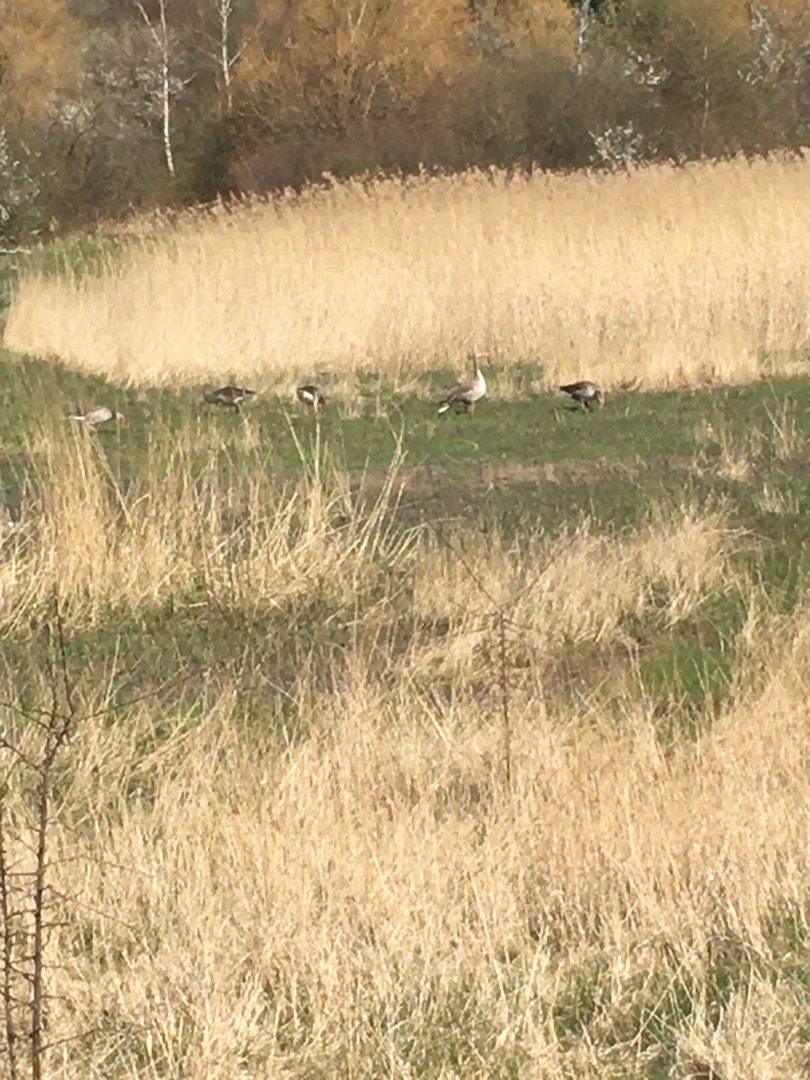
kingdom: Animalia
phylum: Chordata
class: Aves
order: Anseriformes
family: Anatidae
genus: Anser
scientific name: Anser anser
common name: Grågås
